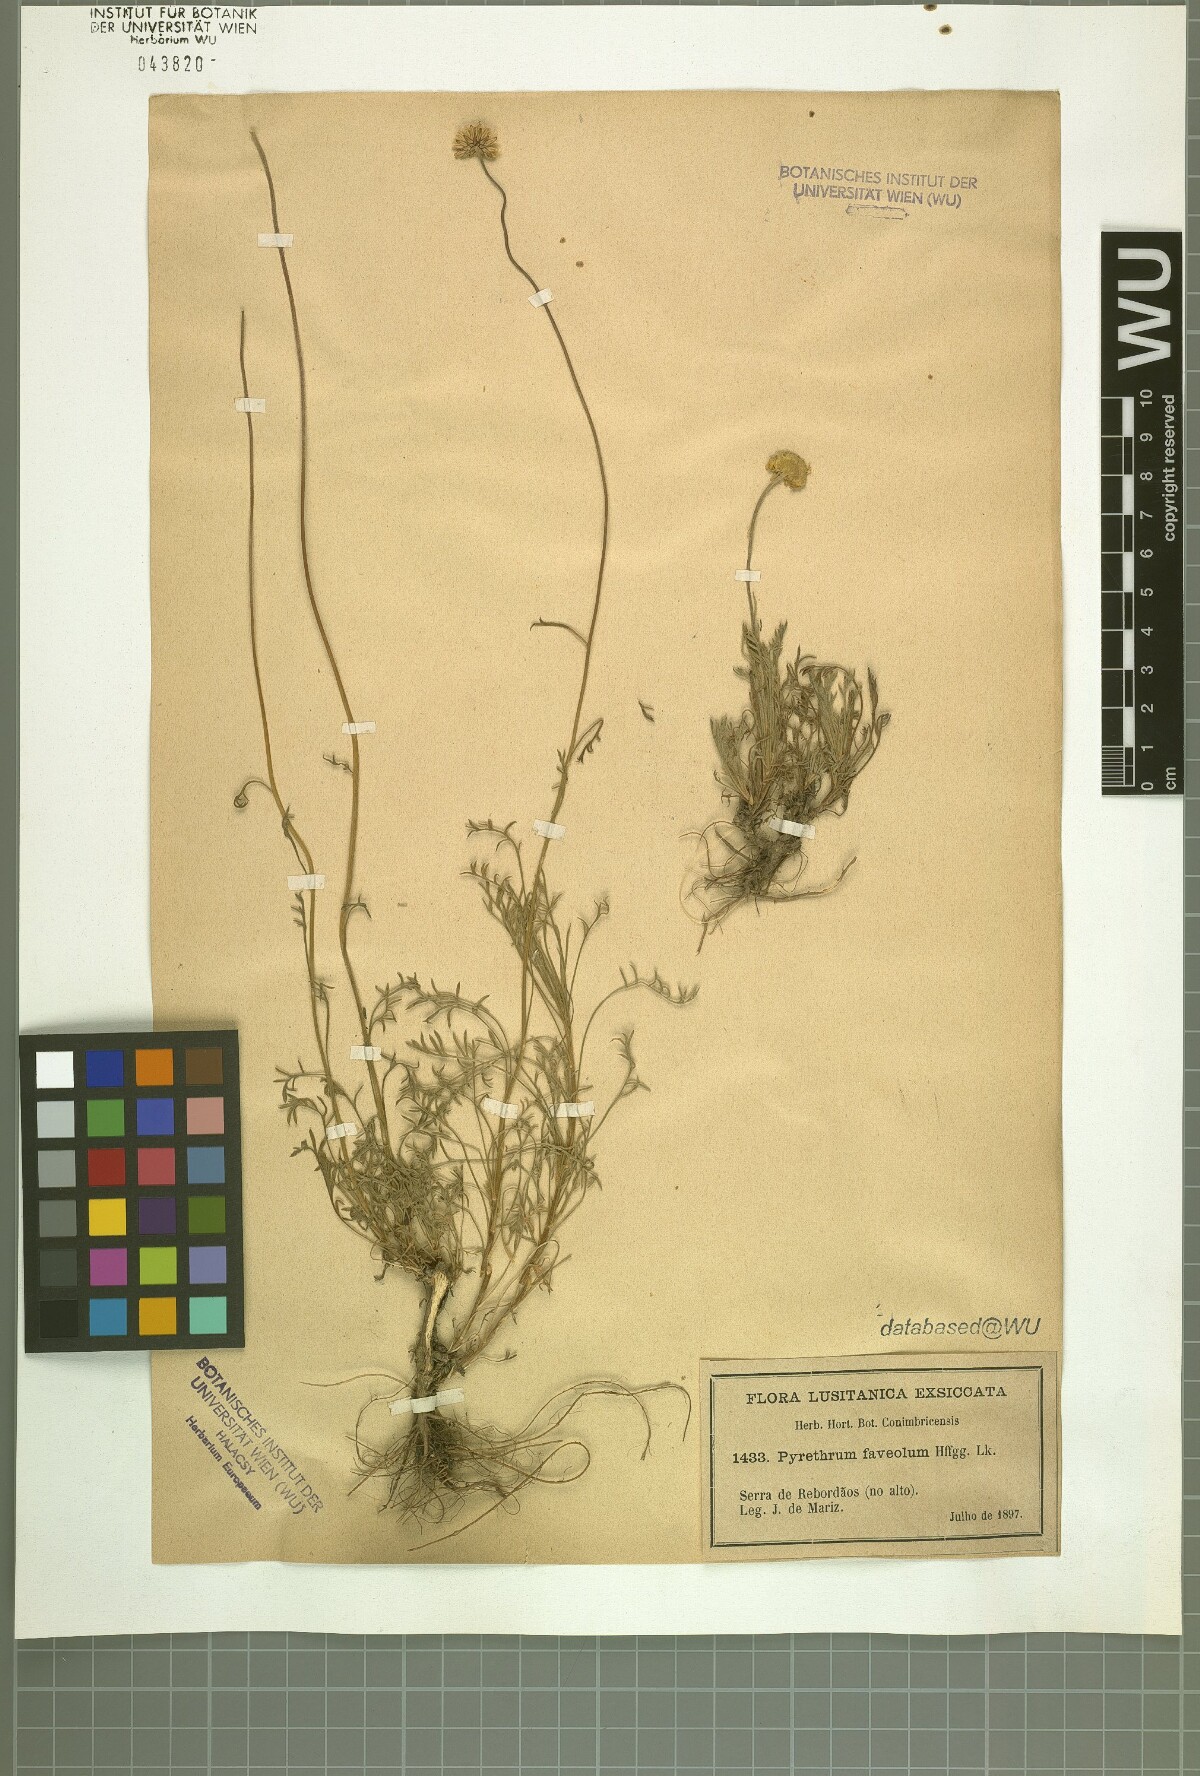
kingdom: Plantae
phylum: Tracheophyta
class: Magnoliopsida
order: Asterales
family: Asteraceae
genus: Leucanthemopsis
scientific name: Leucanthemopsis flaveola
